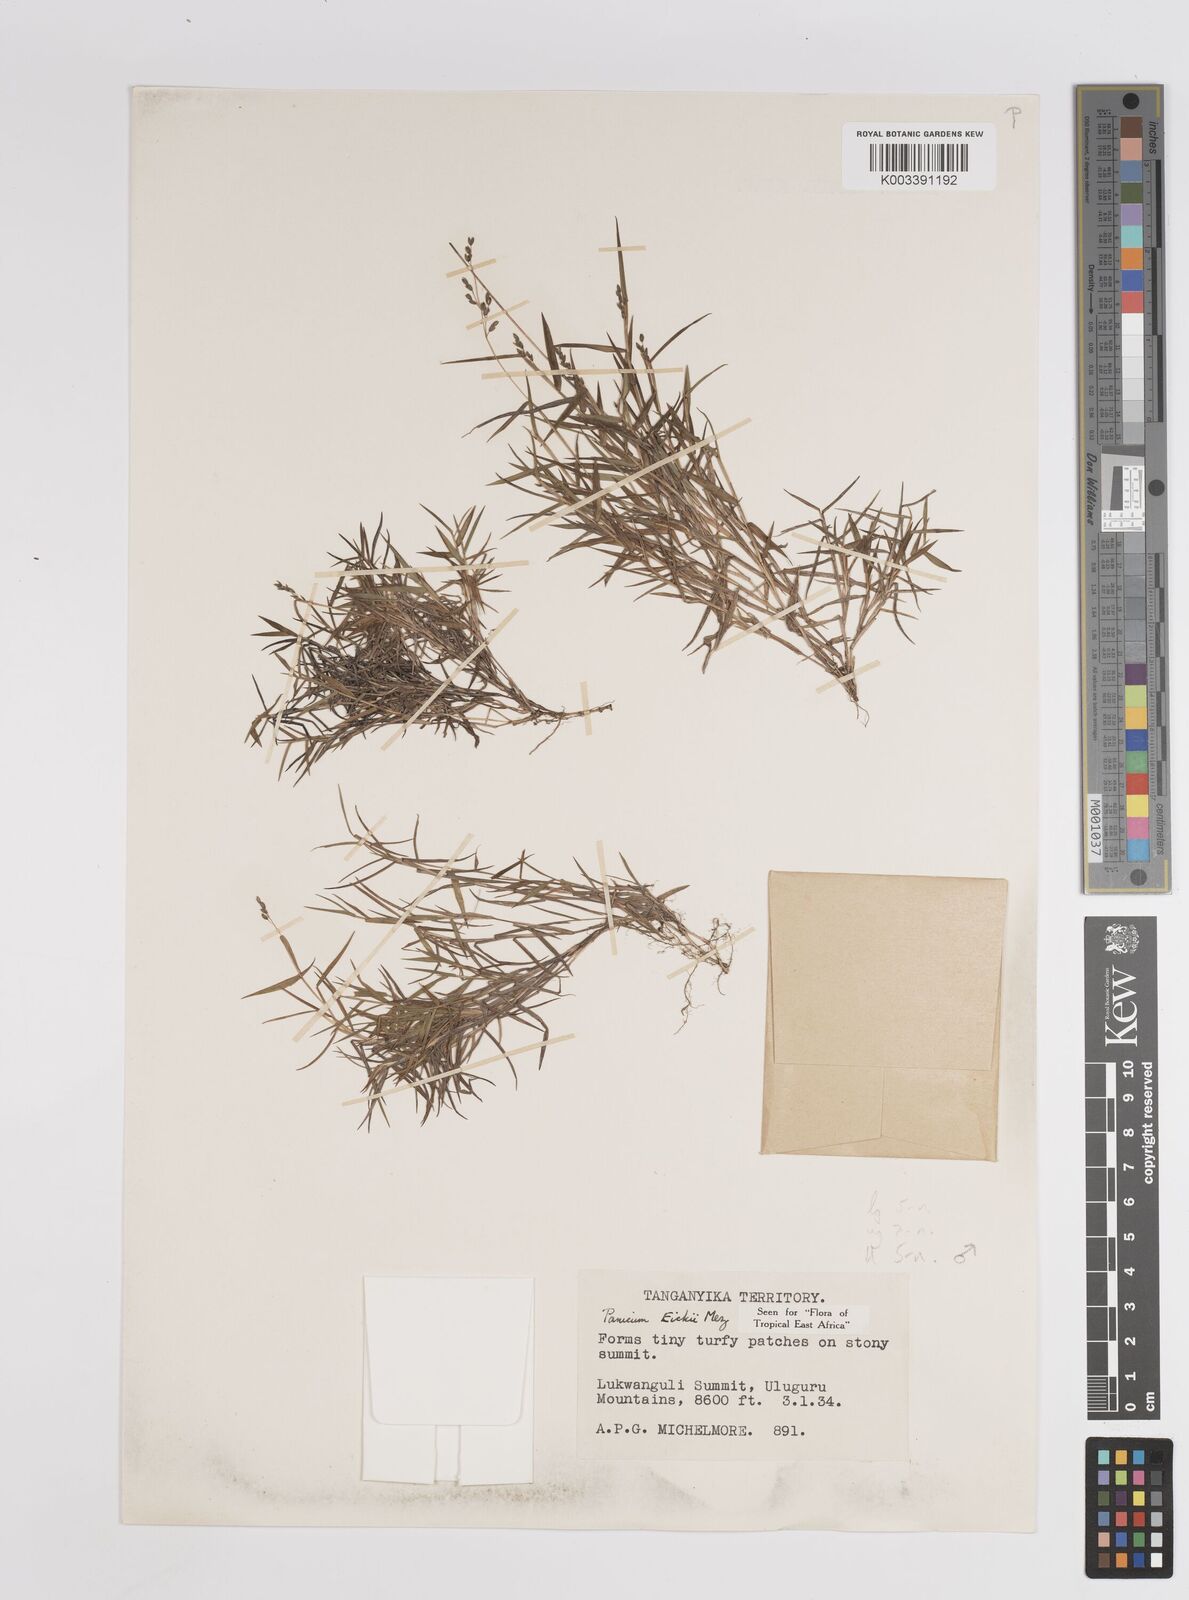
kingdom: Plantae
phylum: Tracheophyta
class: Liliopsida
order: Poales
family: Poaceae
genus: Panicum
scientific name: Panicum eickii
